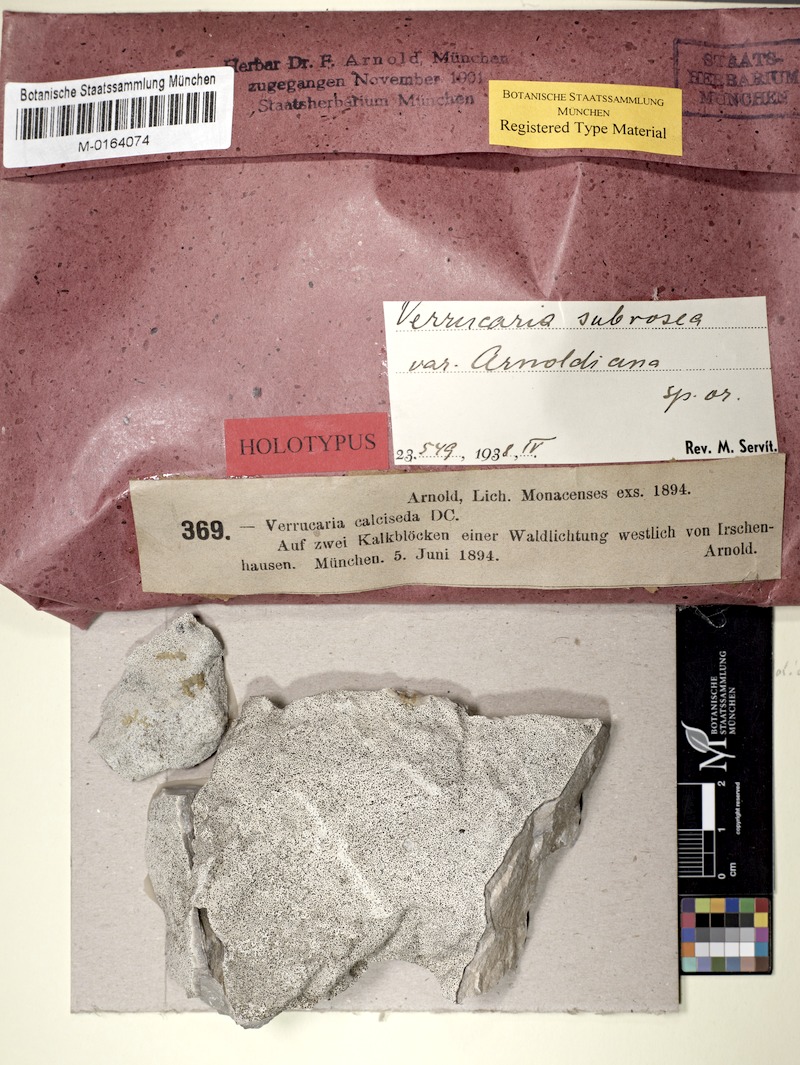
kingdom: Fungi
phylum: Ascomycota
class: Eurotiomycetes
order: Verrucariales
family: Verrucariaceae
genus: Bagliettoa
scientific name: Bagliettoa parmigera
